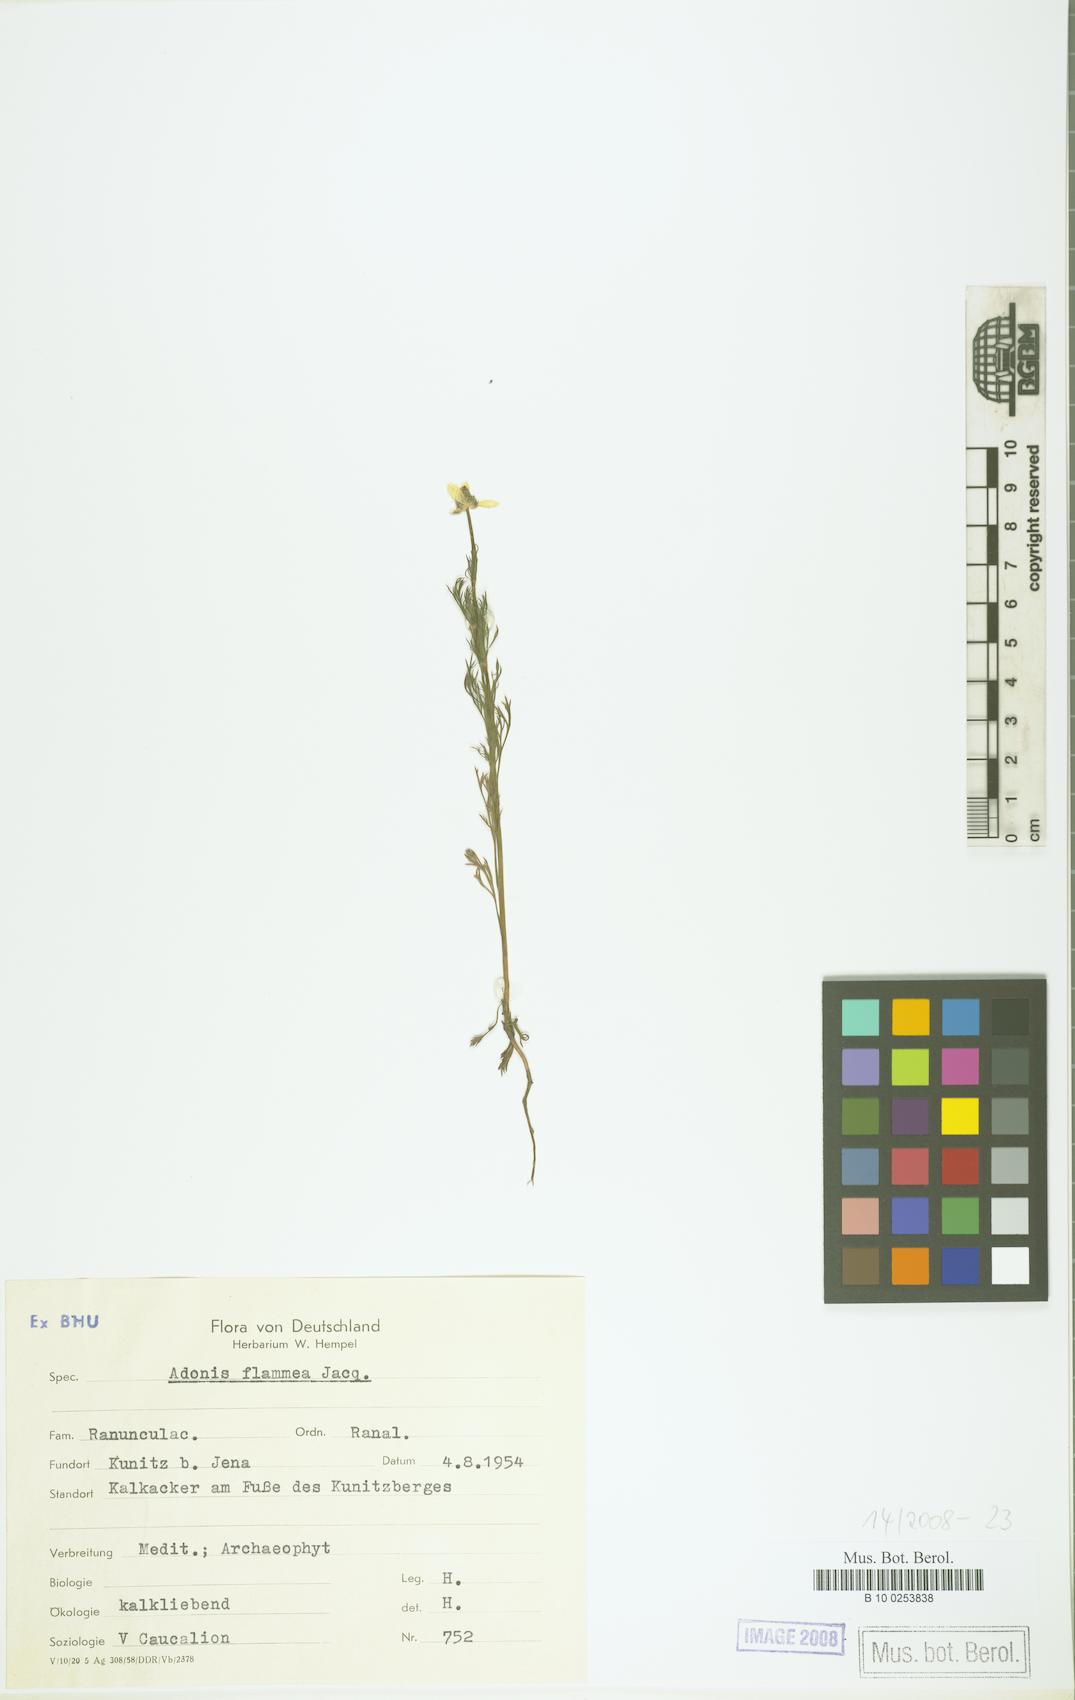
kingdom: Plantae
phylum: Tracheophyta
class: Magnoliopsida
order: Ranunculales
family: Ranunculaceae
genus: Adonis
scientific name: Adonis flammea
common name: Large pheasant's-eye
